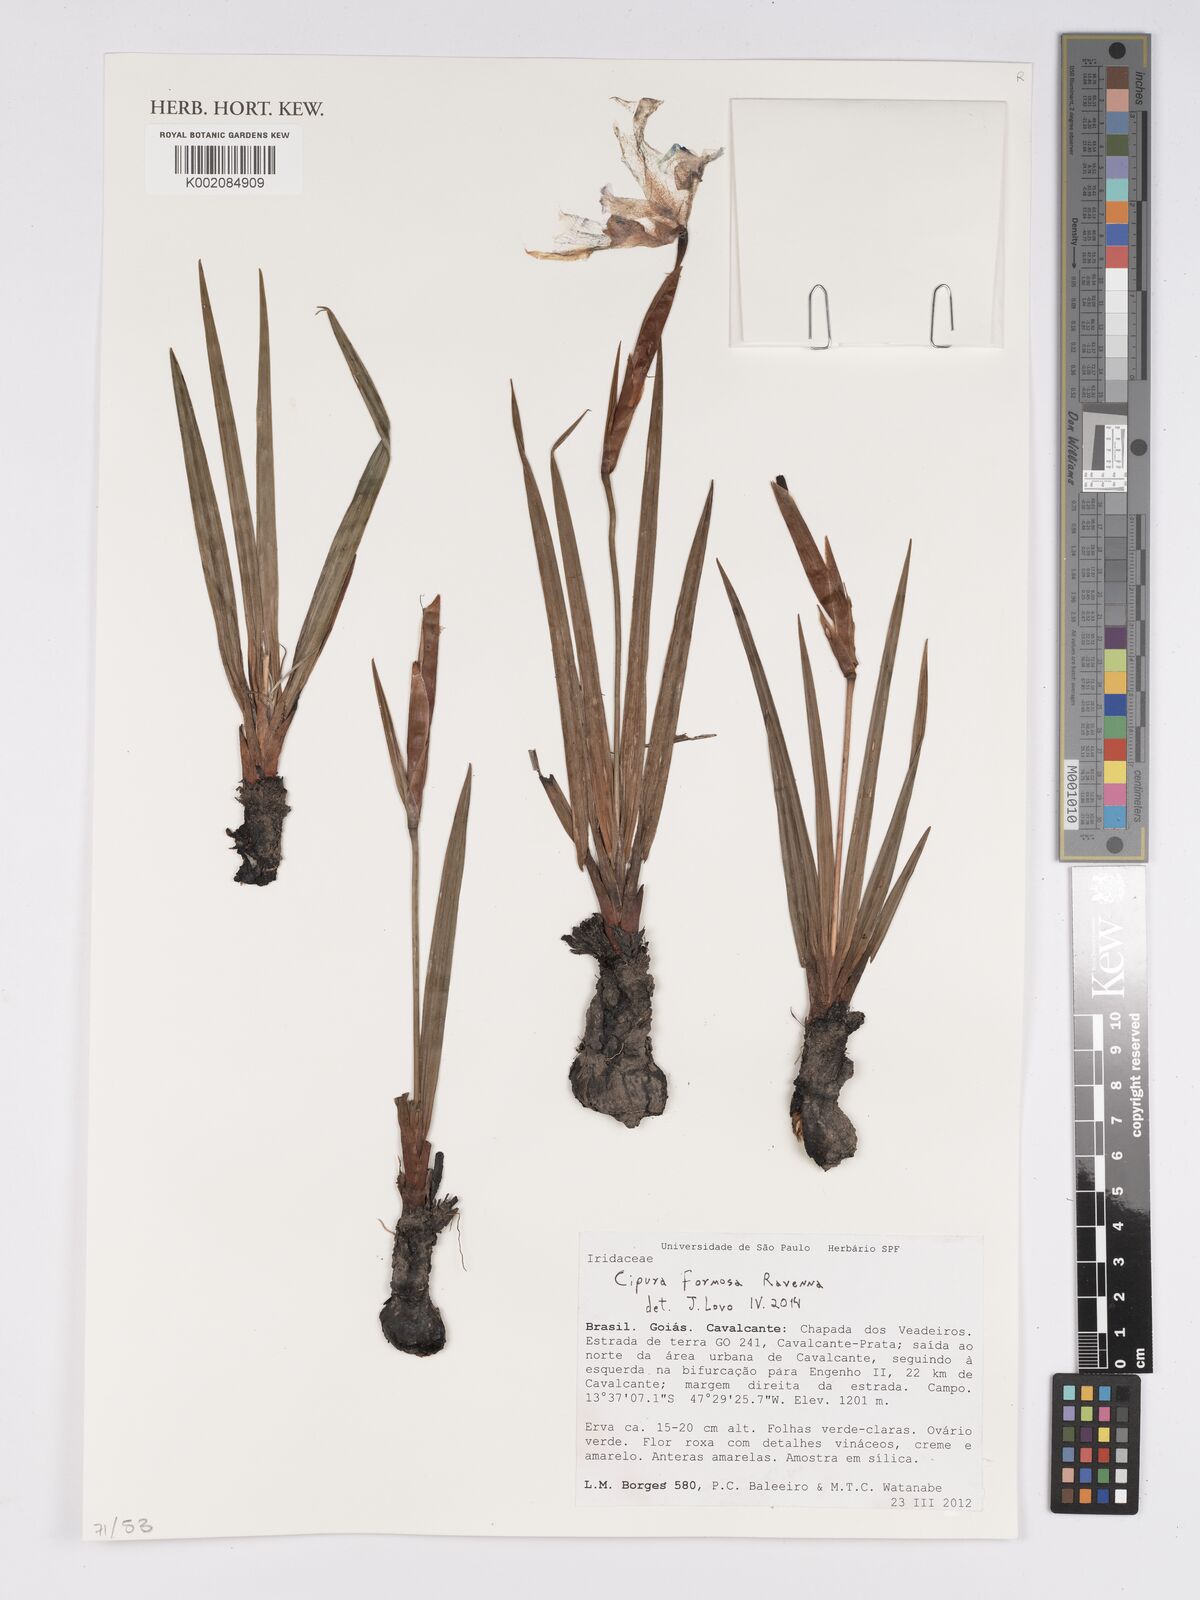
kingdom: Plantae
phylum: Tracheophyta
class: Liliopsida
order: Asparagales
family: Iridaceae
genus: Cipura
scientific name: Cipura formosa
